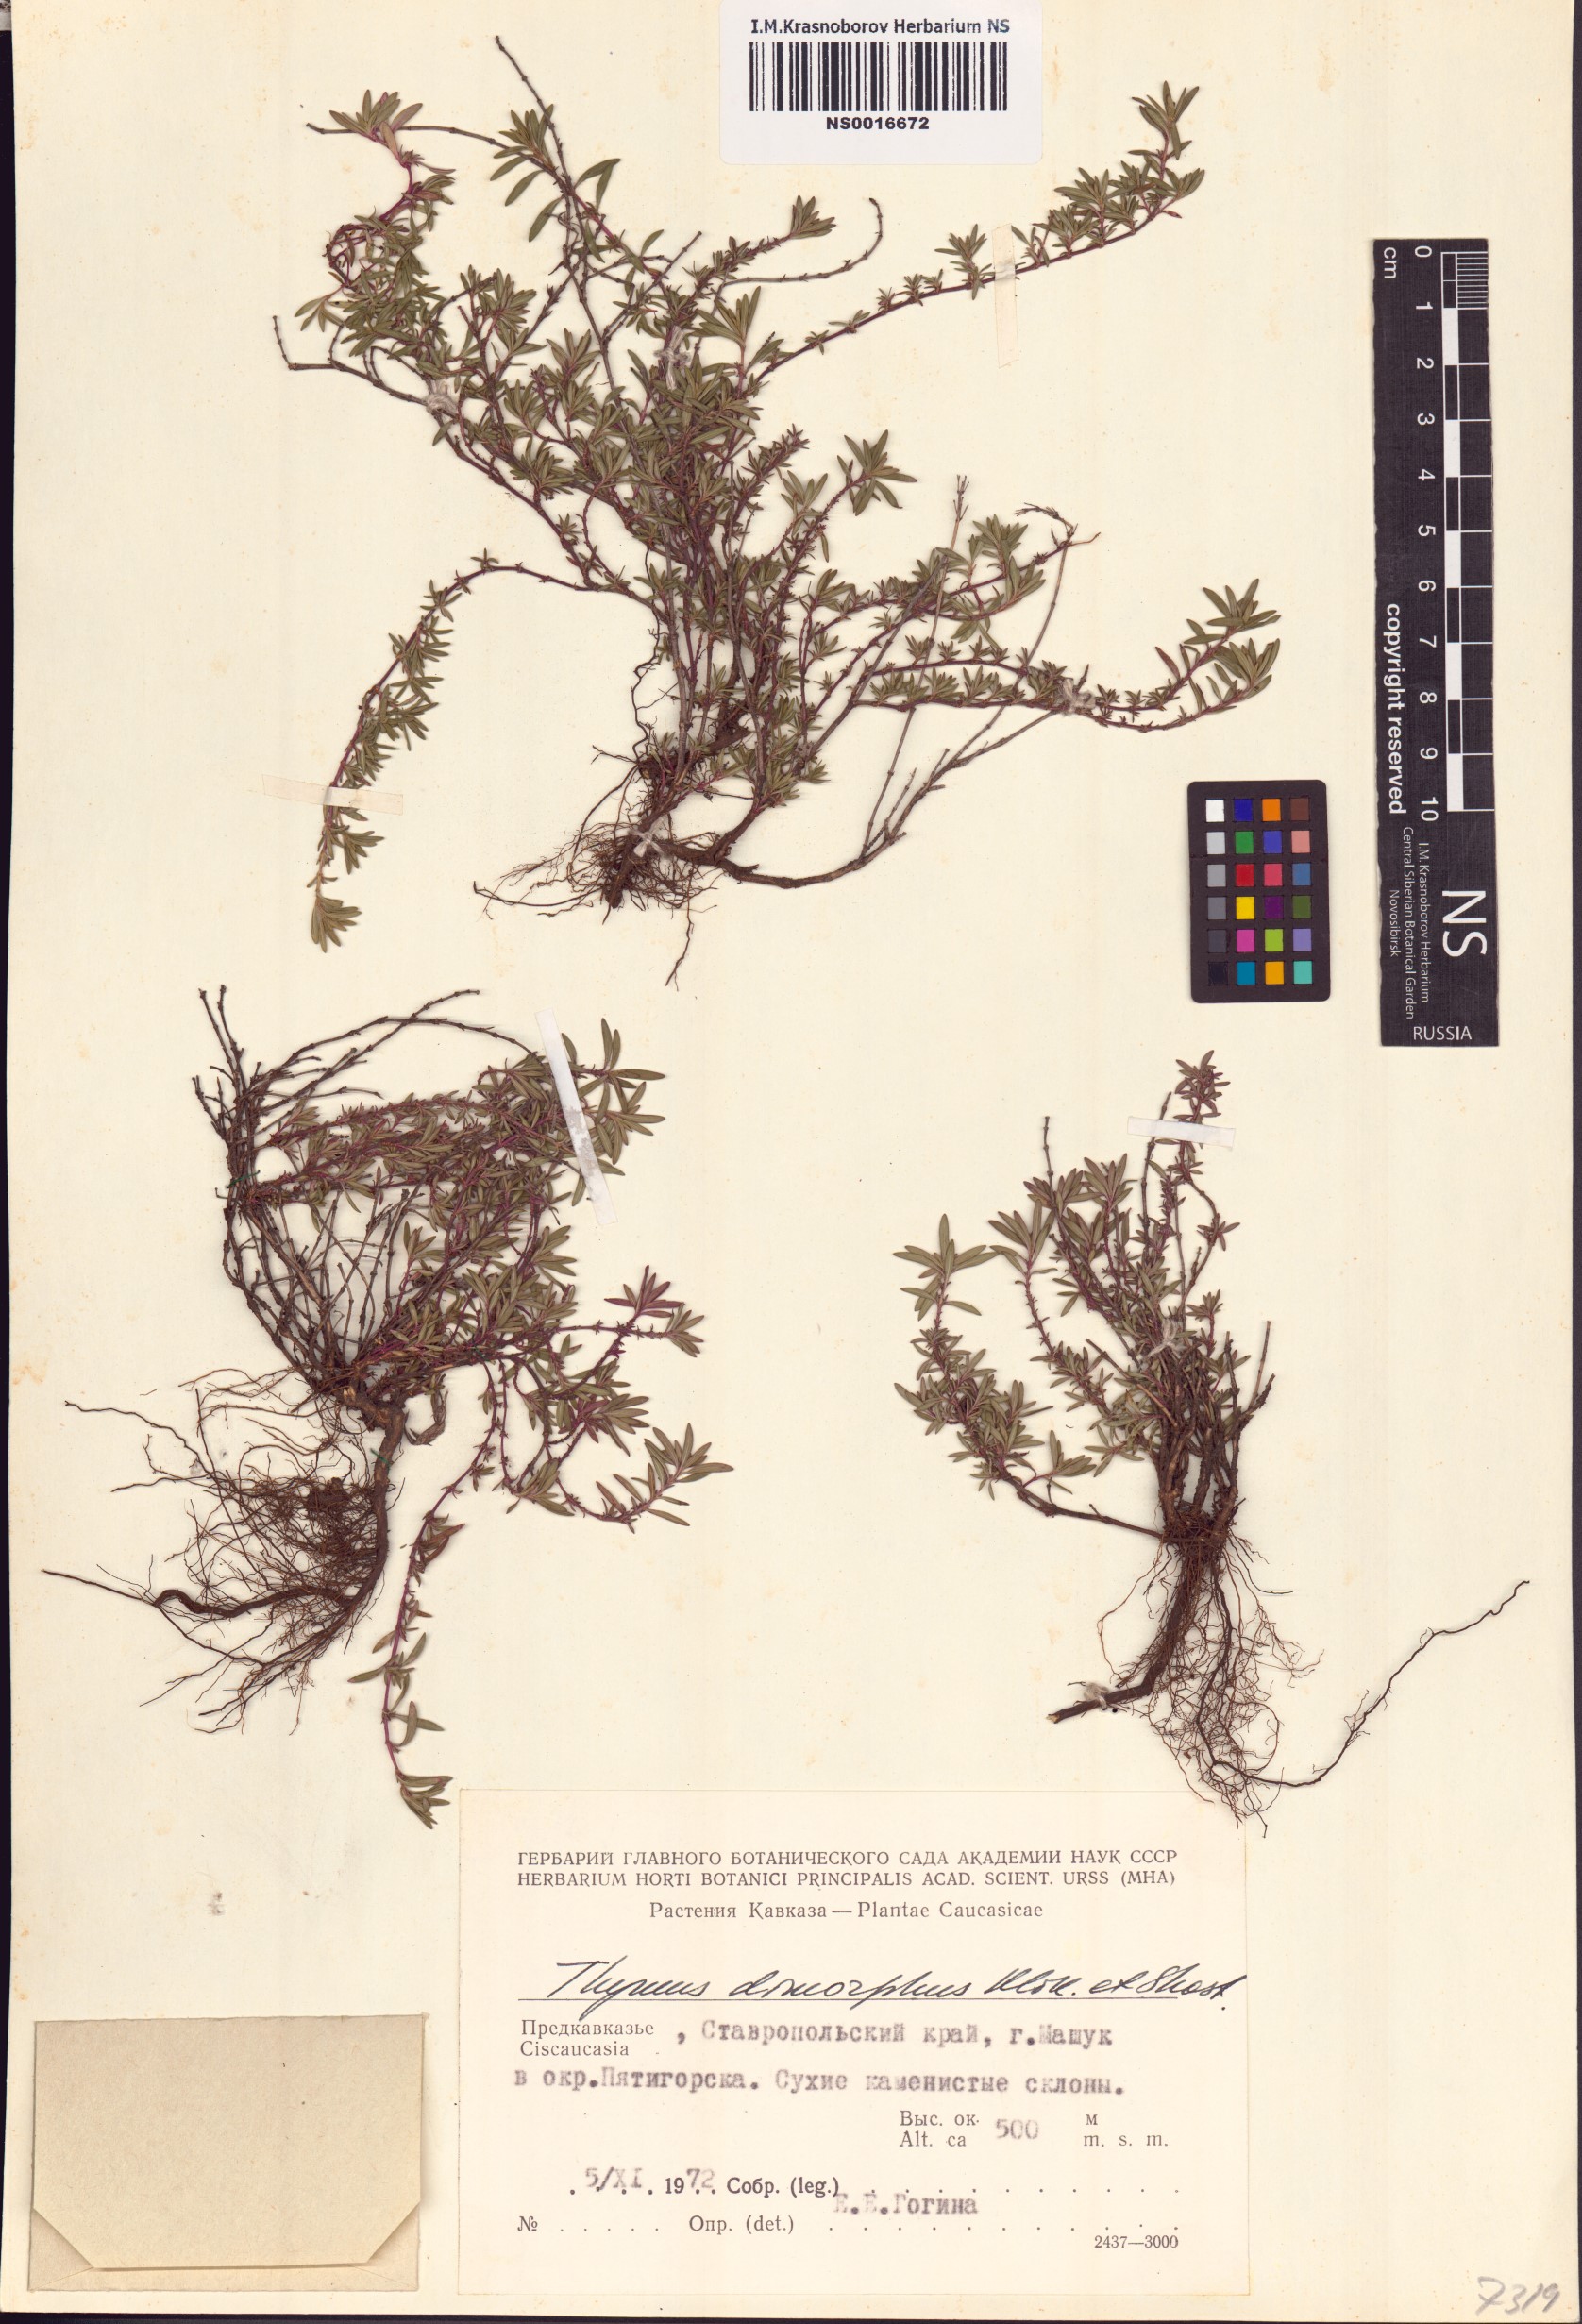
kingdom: Plantae
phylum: Tracheophyta
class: Magnoliopsida
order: Lamiales
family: Lamiaceae
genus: Thymus
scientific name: Thymus dimorphus
